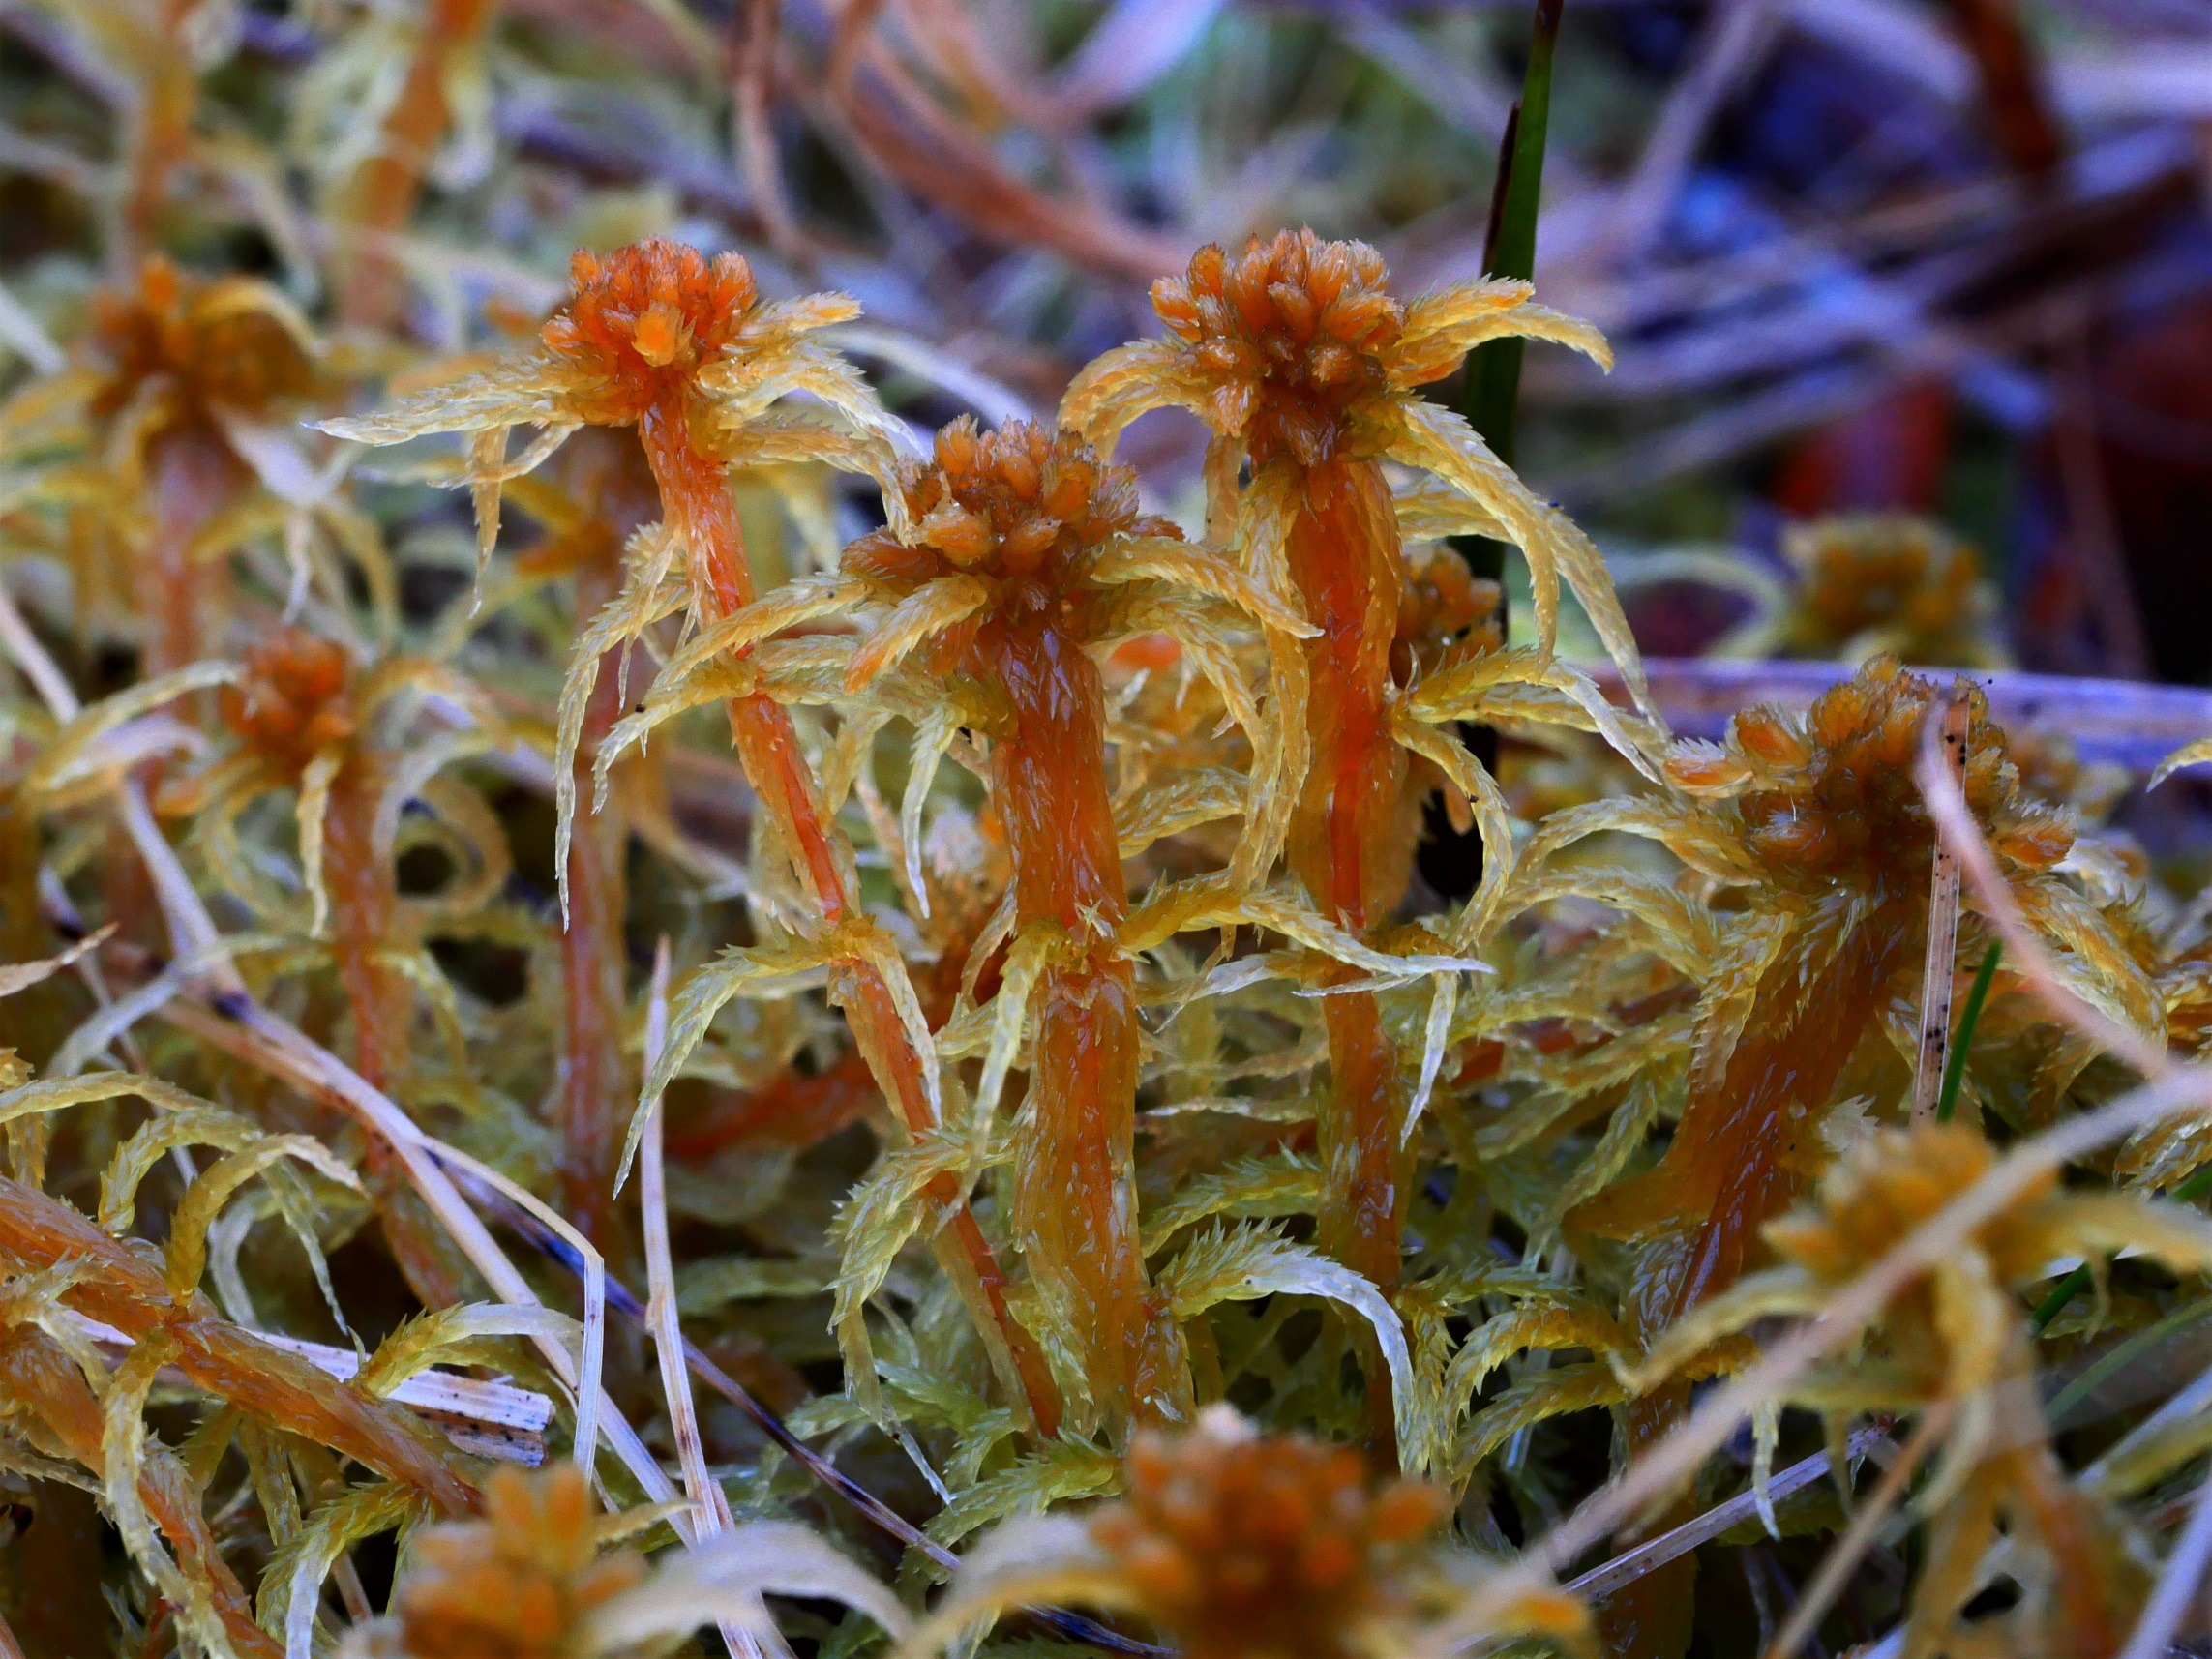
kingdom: Plantae
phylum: Bryophyta
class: Sphagnopsida
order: Sphagnales
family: Sphagnaceae
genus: Sphagnum
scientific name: Sphagnum contortum
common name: Krumbladet tørvemos
